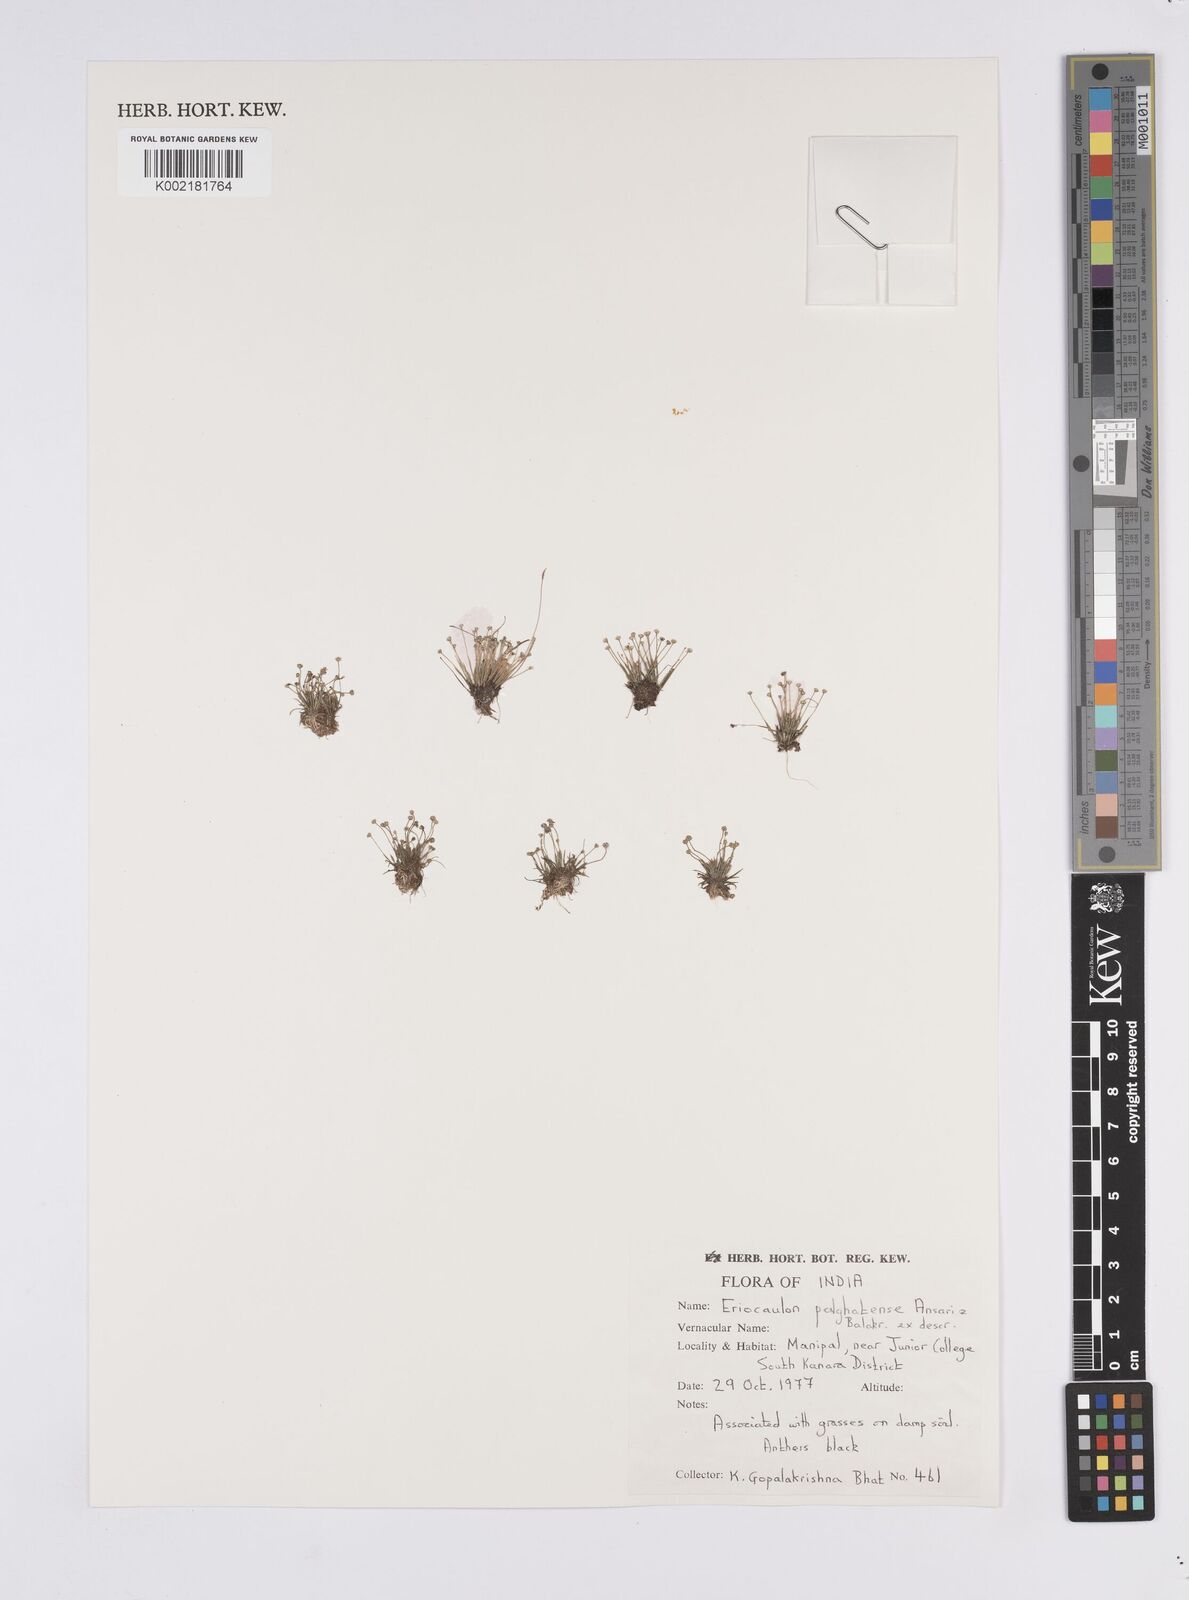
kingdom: Plantae
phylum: Tracheophyta
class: Liliopsida
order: Poales
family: Eriocaulaceae
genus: Eriocaulon
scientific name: Eriocaulon palghatense
